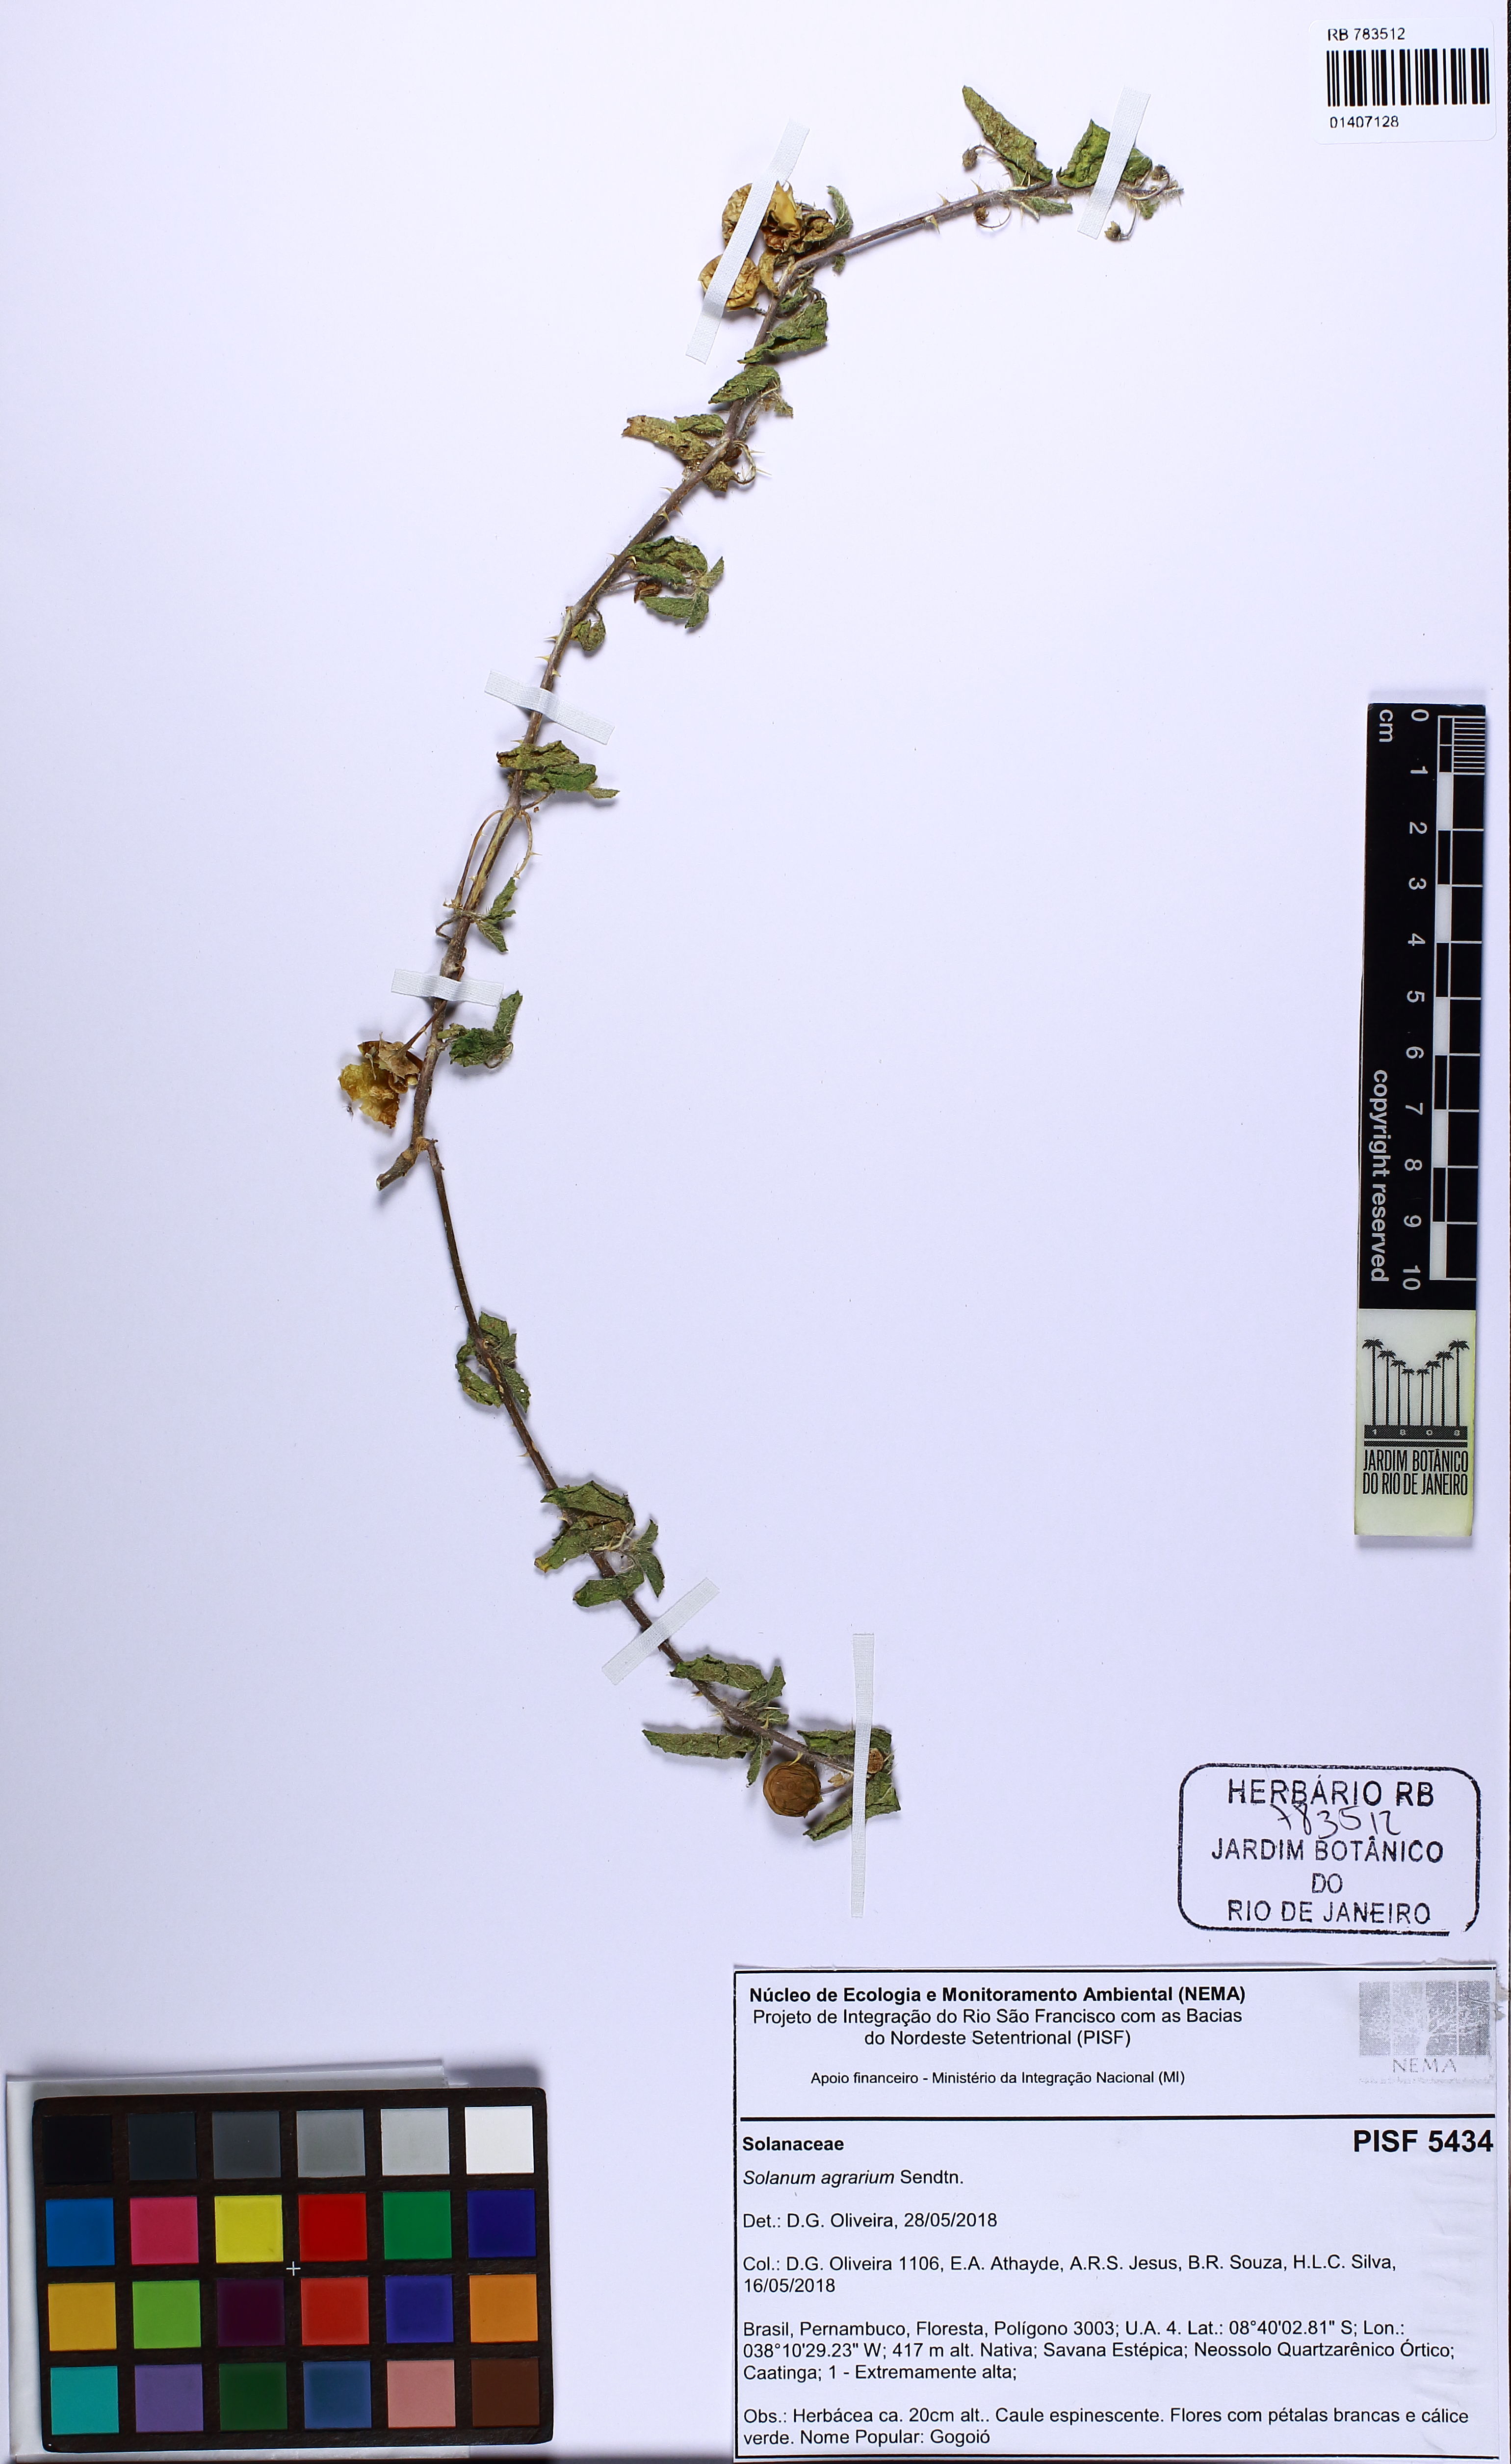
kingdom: Plantae
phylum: Tracheophyta
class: Magnoliopsida
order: Solanales
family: Solanaceae
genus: Solanum
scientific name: Solanum agrarium
